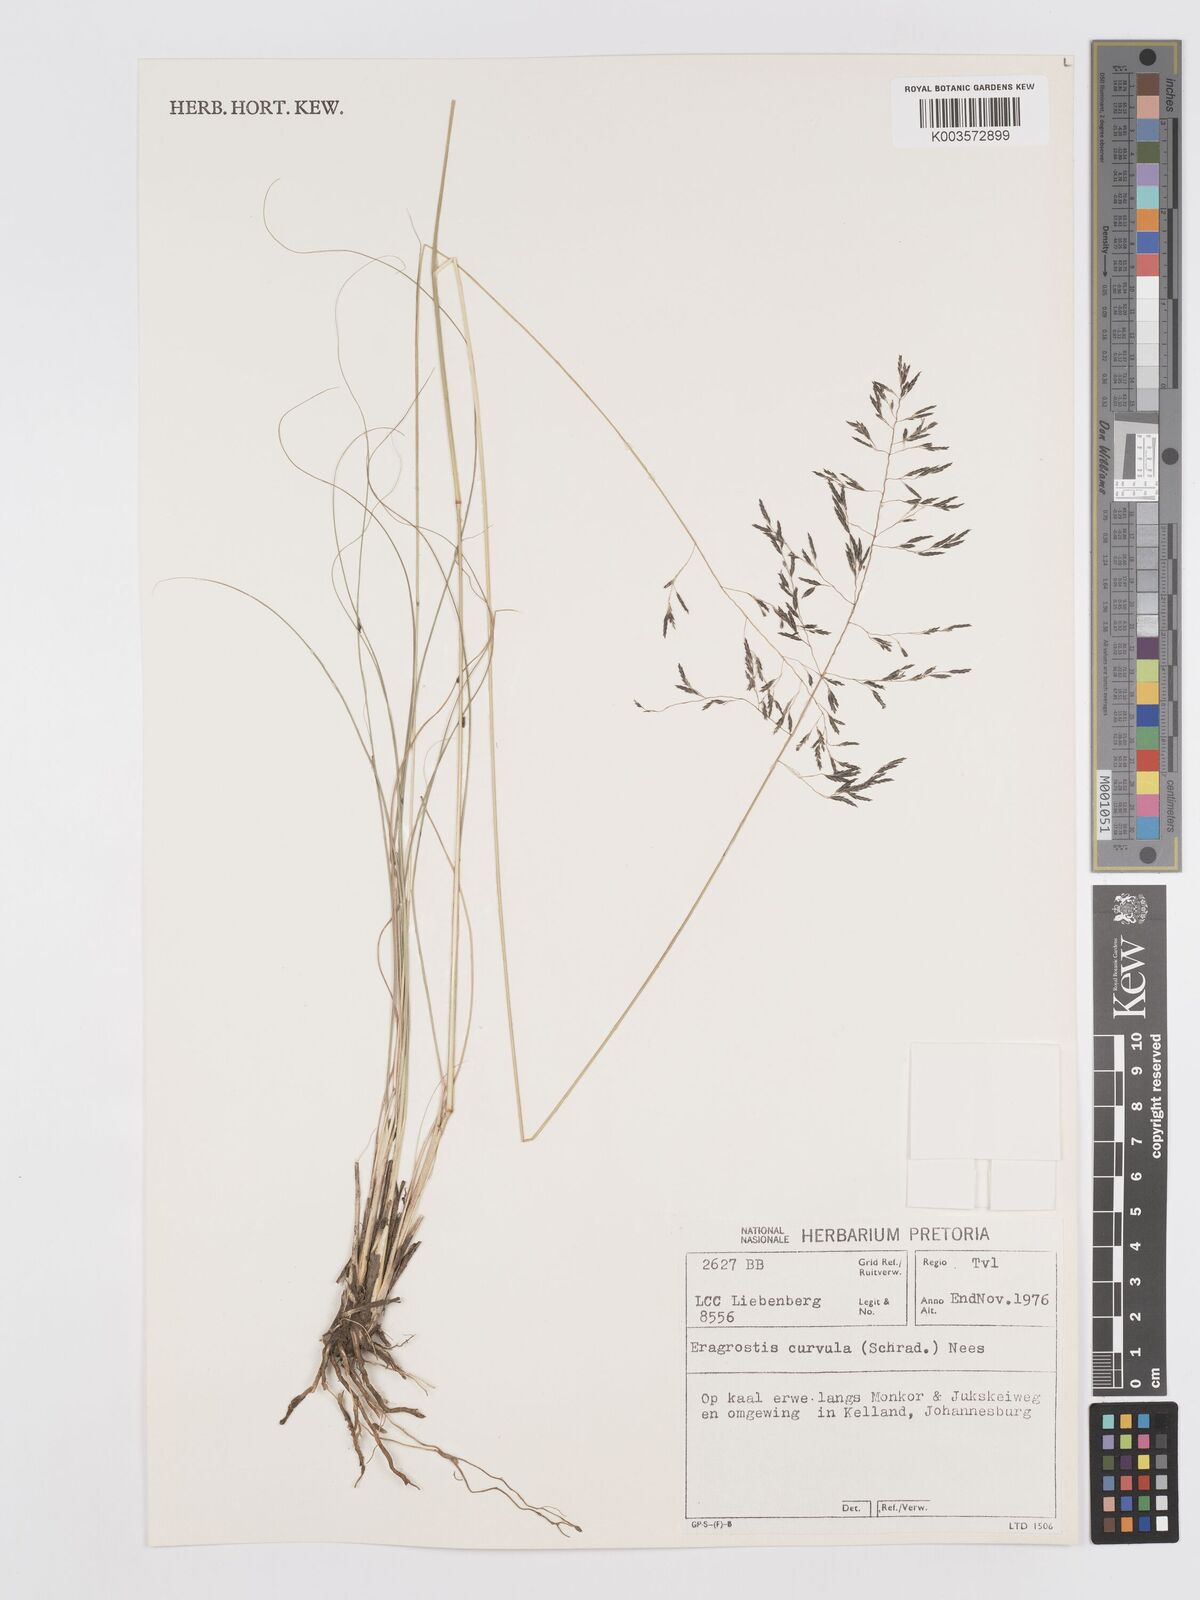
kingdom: Plantae
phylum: Tracheophyta
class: Liliopsida
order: Poales
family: Poaceae
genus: Eragrostis
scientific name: Eragrostis curvula
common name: African love-grass
